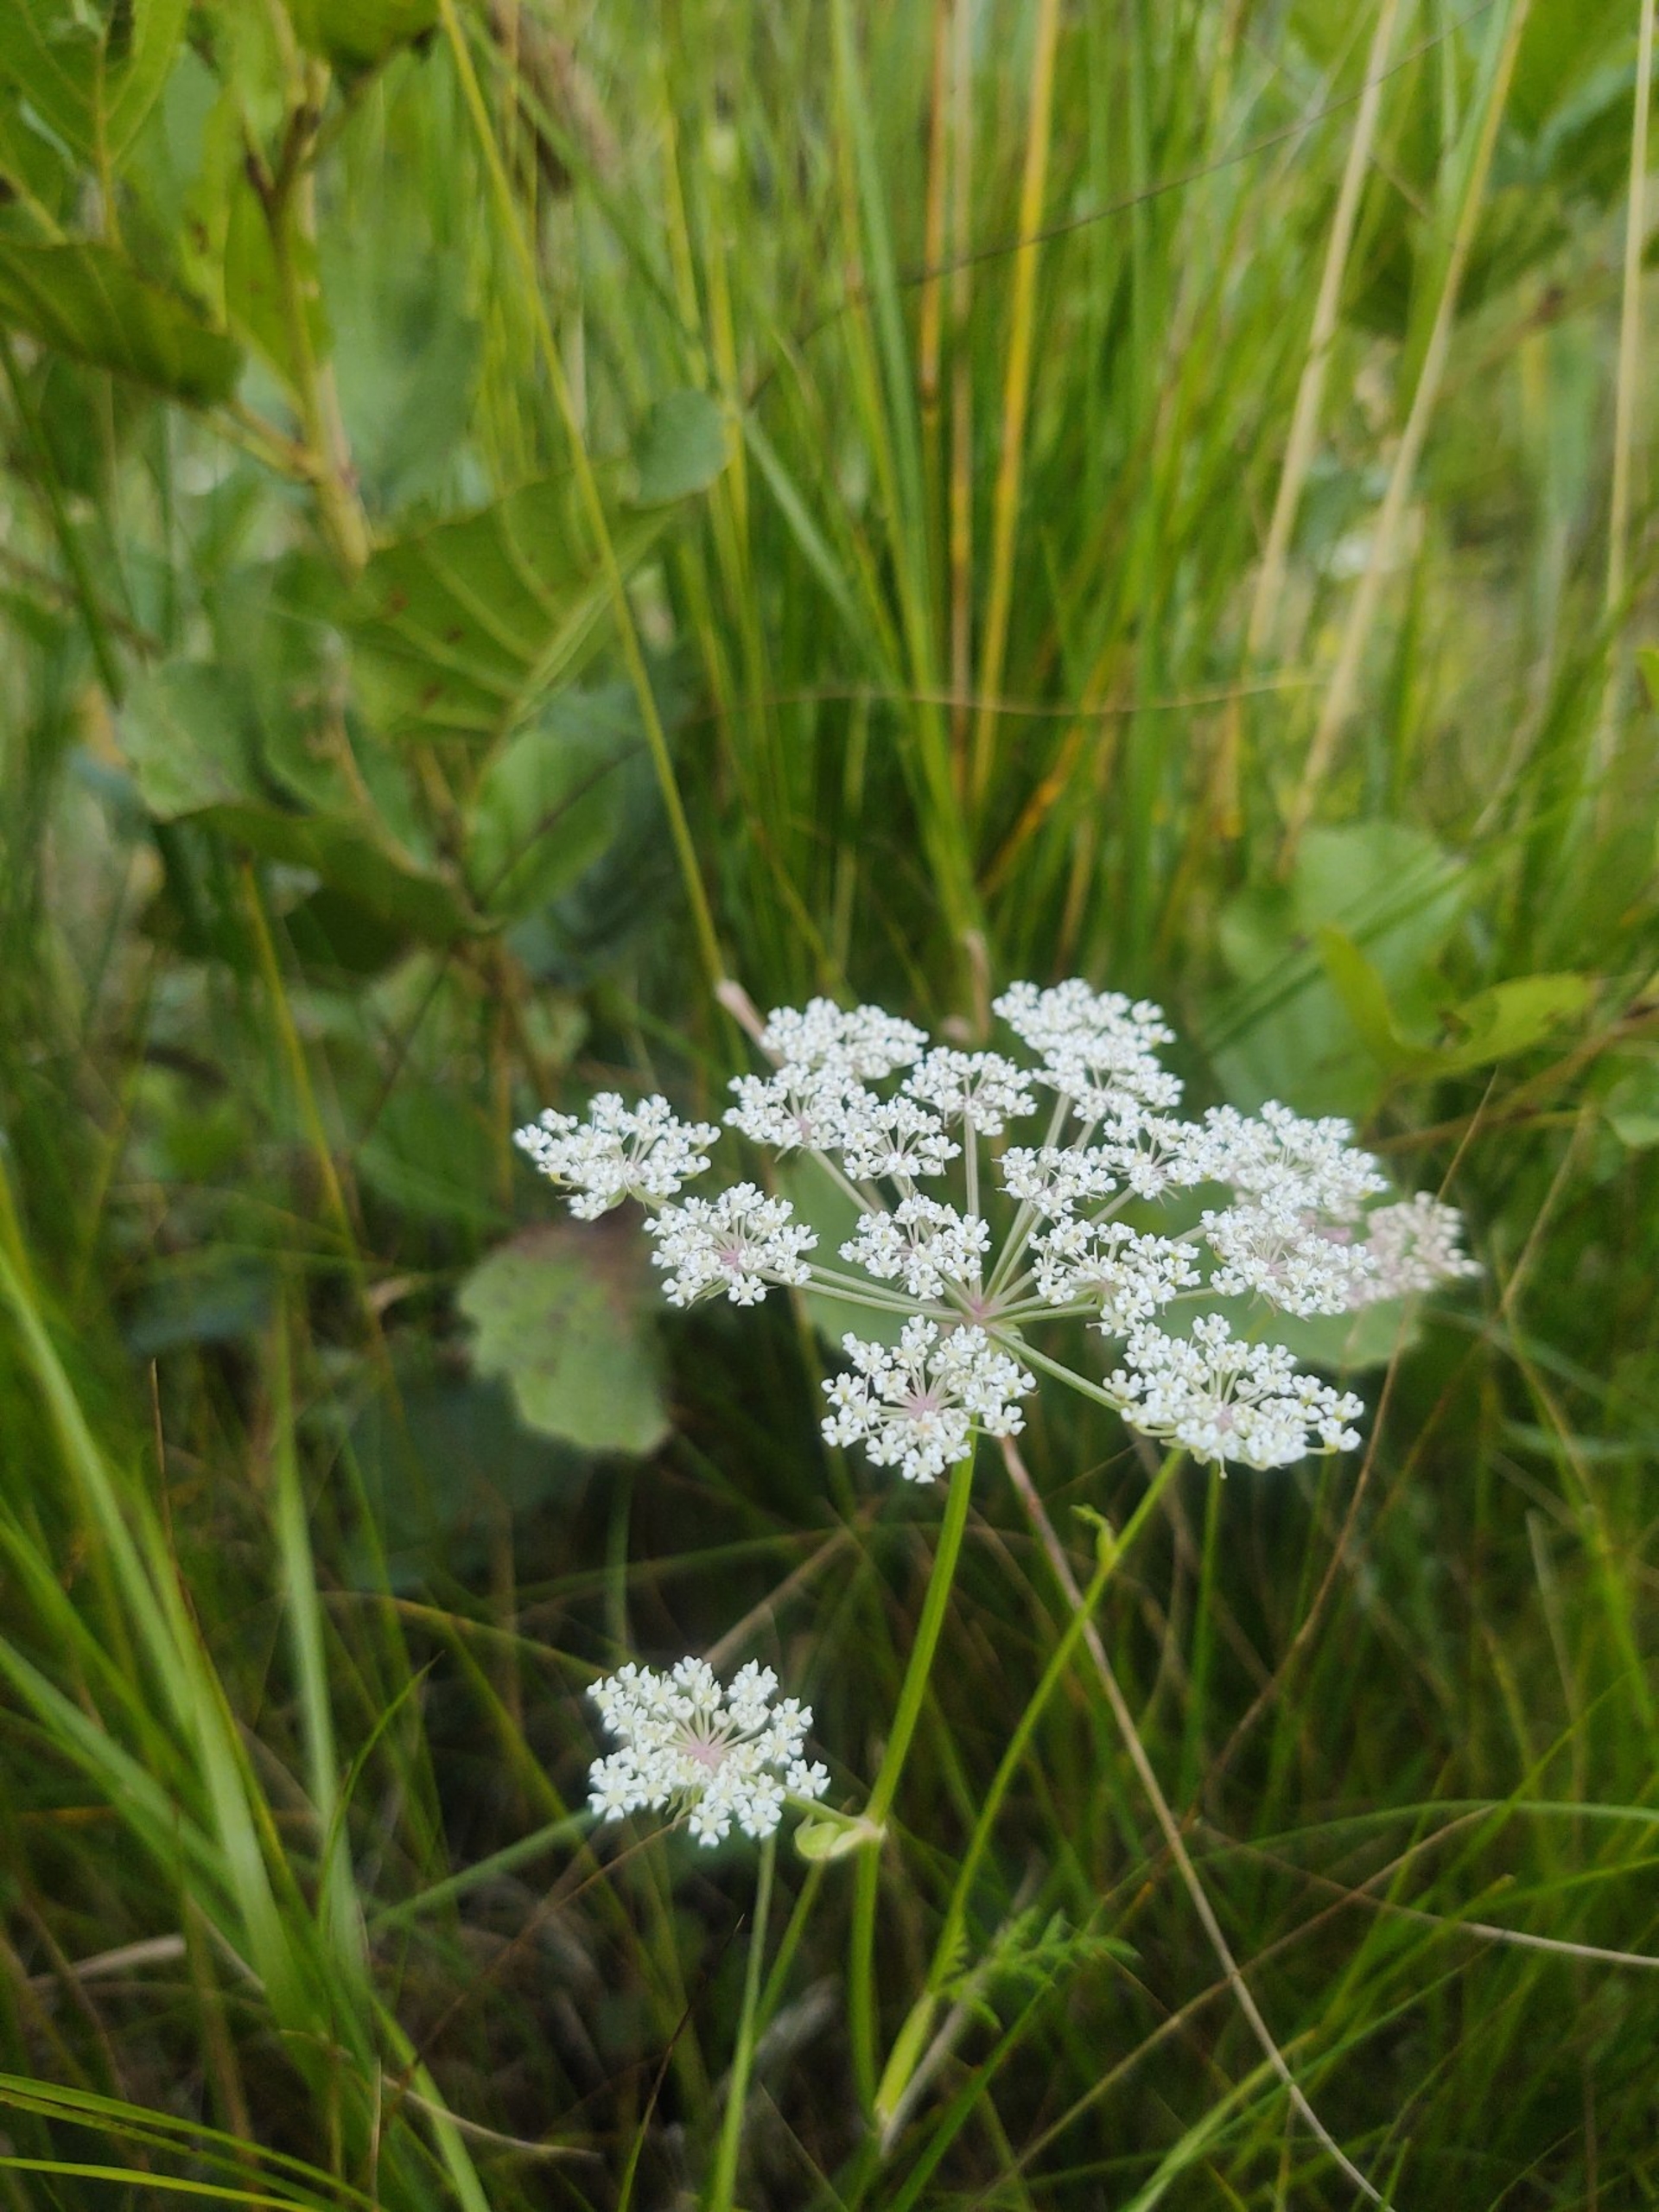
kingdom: Plantae
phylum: Tracheophyta
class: Magnoliopsida
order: Apiales
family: Apiaceae
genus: Thysselinum
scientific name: Thysselinum palustre
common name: Kær-svovlrod
